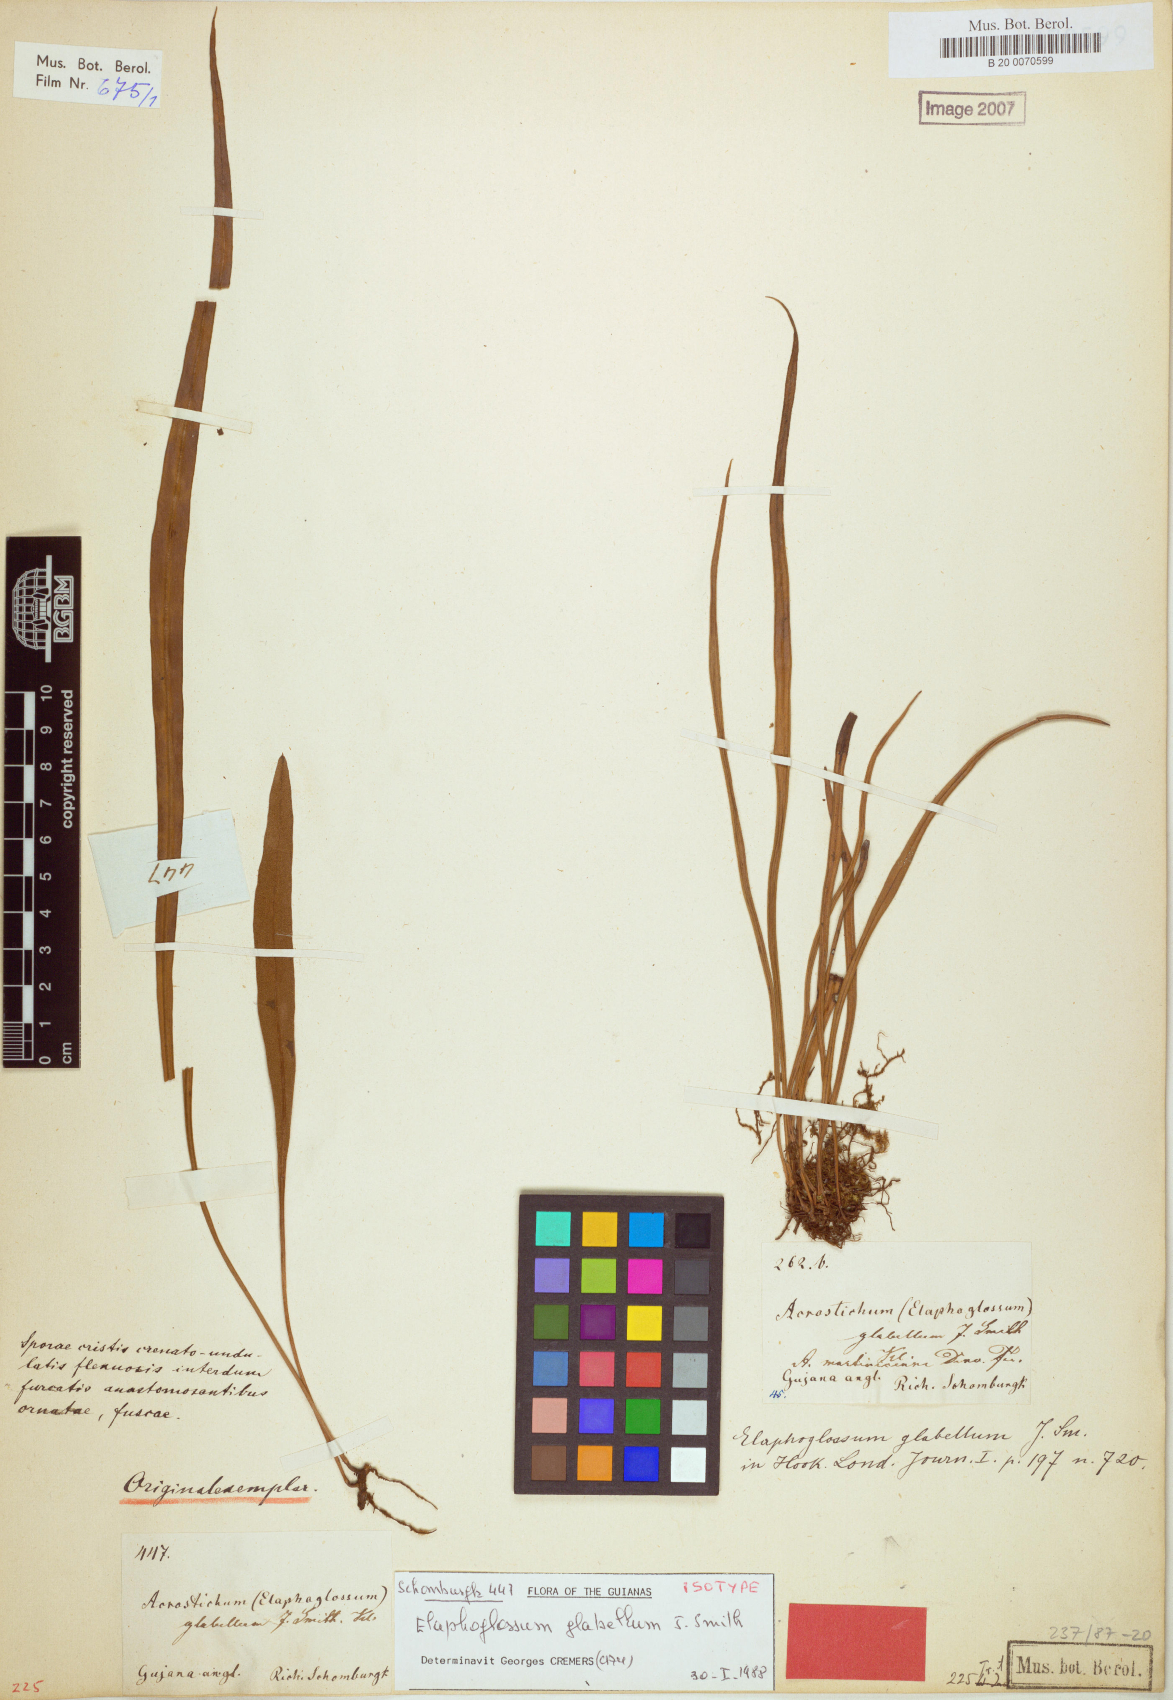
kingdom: Plantae
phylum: Tracheophyta
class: Polypodiopsida
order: Polypodiales
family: Dryopteridaceae
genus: Elaphoglossum
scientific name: Elaphoglossum glabellum
